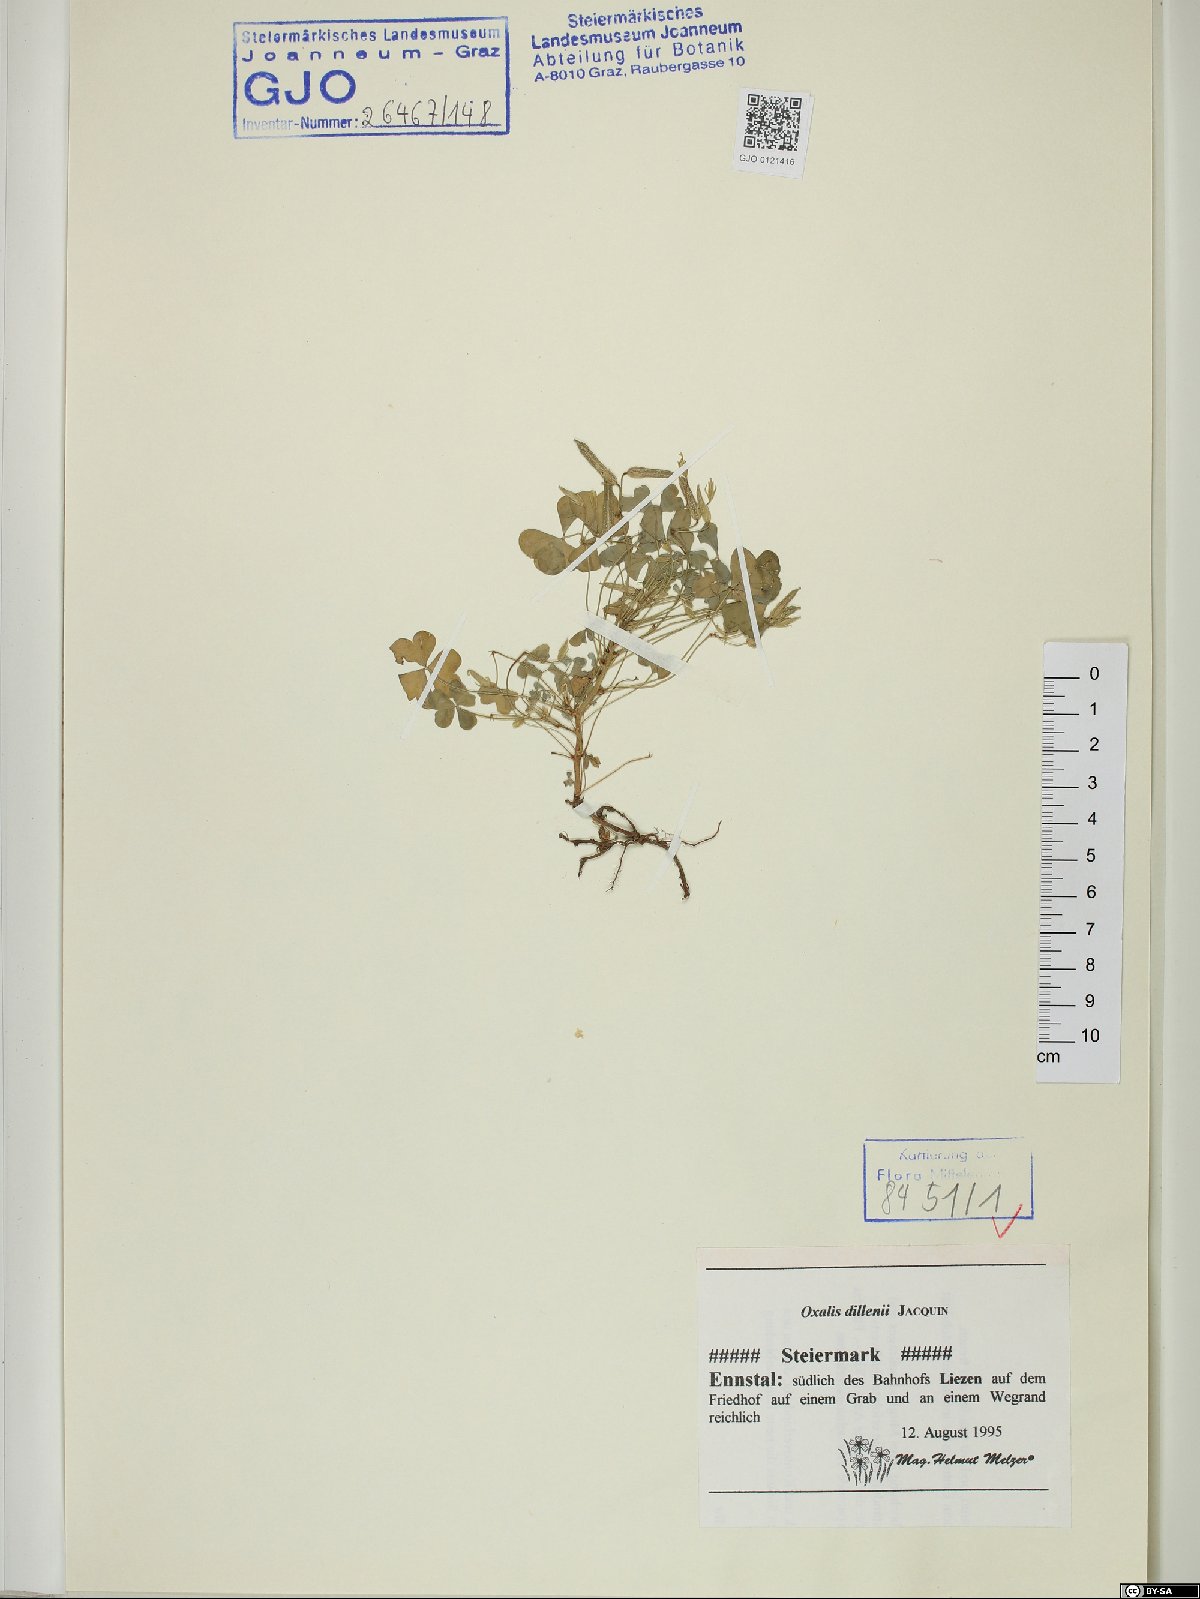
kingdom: Plantae
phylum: Tracheophyta
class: Magnoliopsida
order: Oxalidales
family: Oxalidaceae
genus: Oxalis
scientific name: Oxalis dillenii
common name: Sussex yellow-sorrel
